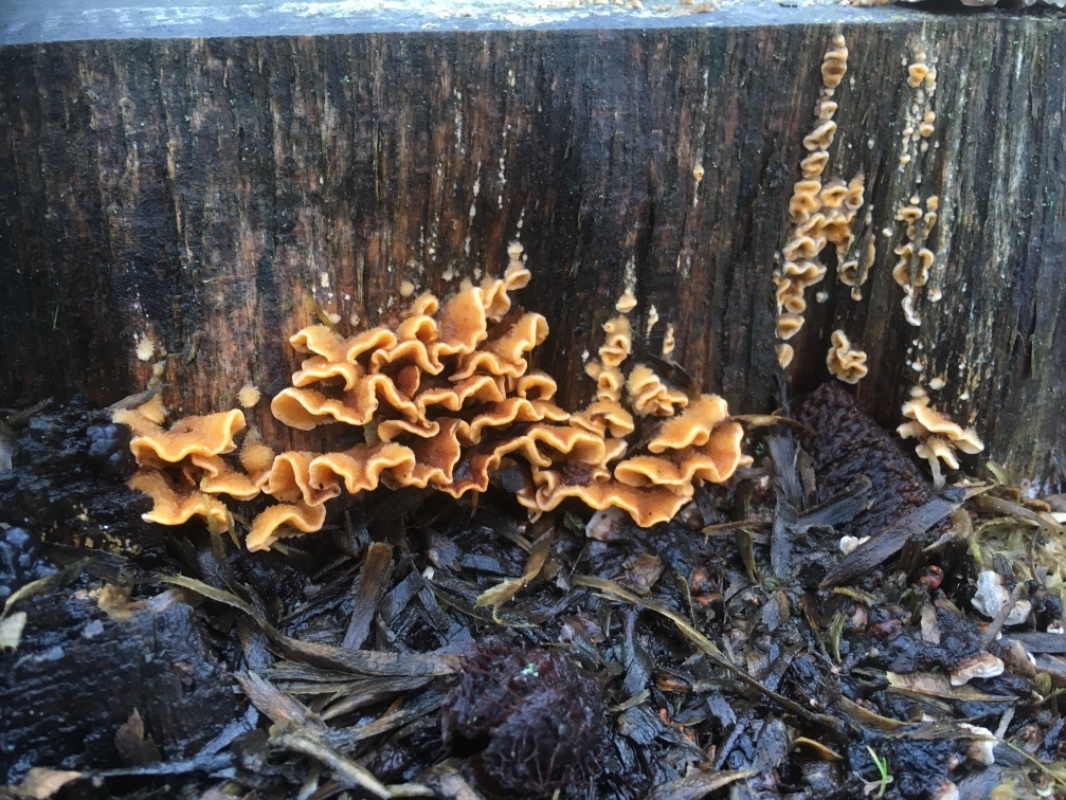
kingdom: Fungi
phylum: Basidiomycota
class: Agaricomycetes
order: Russulales
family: Stereaceae
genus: Stereum
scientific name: Stereum hirsutum
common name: håret lædersvamp
